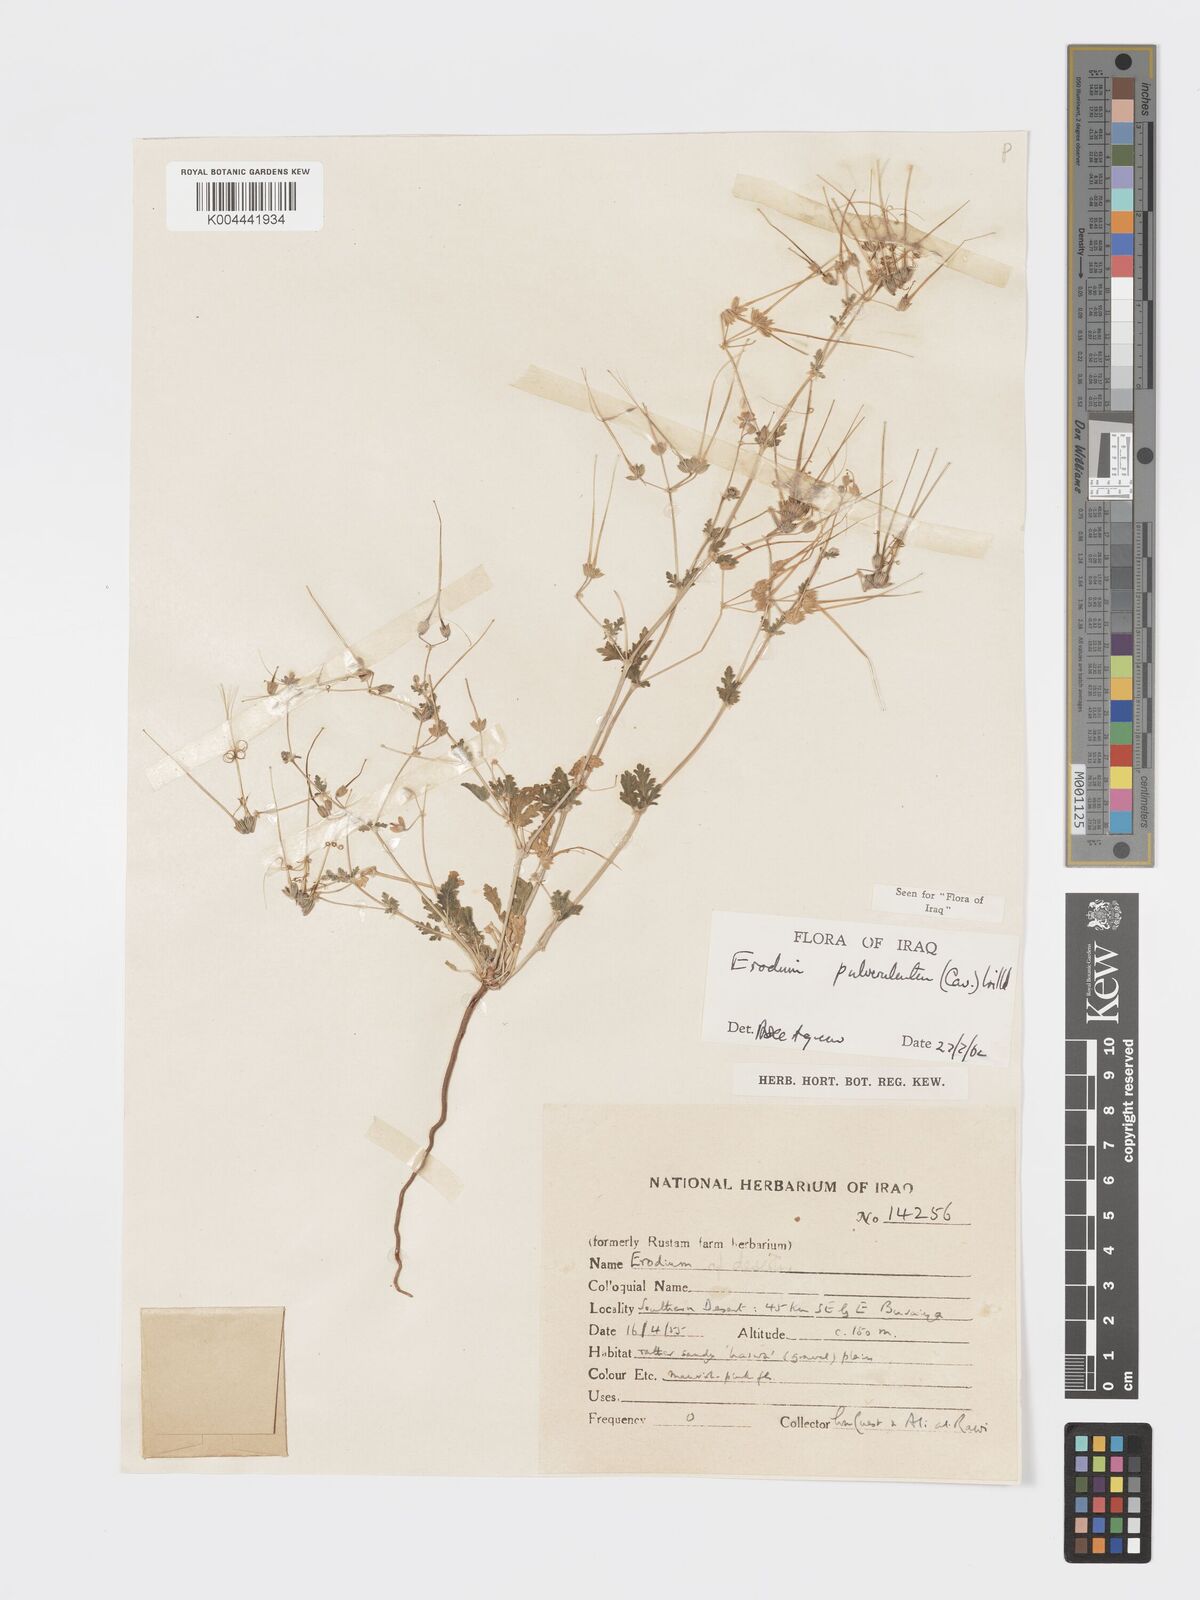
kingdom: Plantae
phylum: Tracheophyta
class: Magnoliopsida
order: Geraniales
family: Geraniaceae
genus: Erodium
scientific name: Erodium laciniatum
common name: Cutleaf stork's bill
